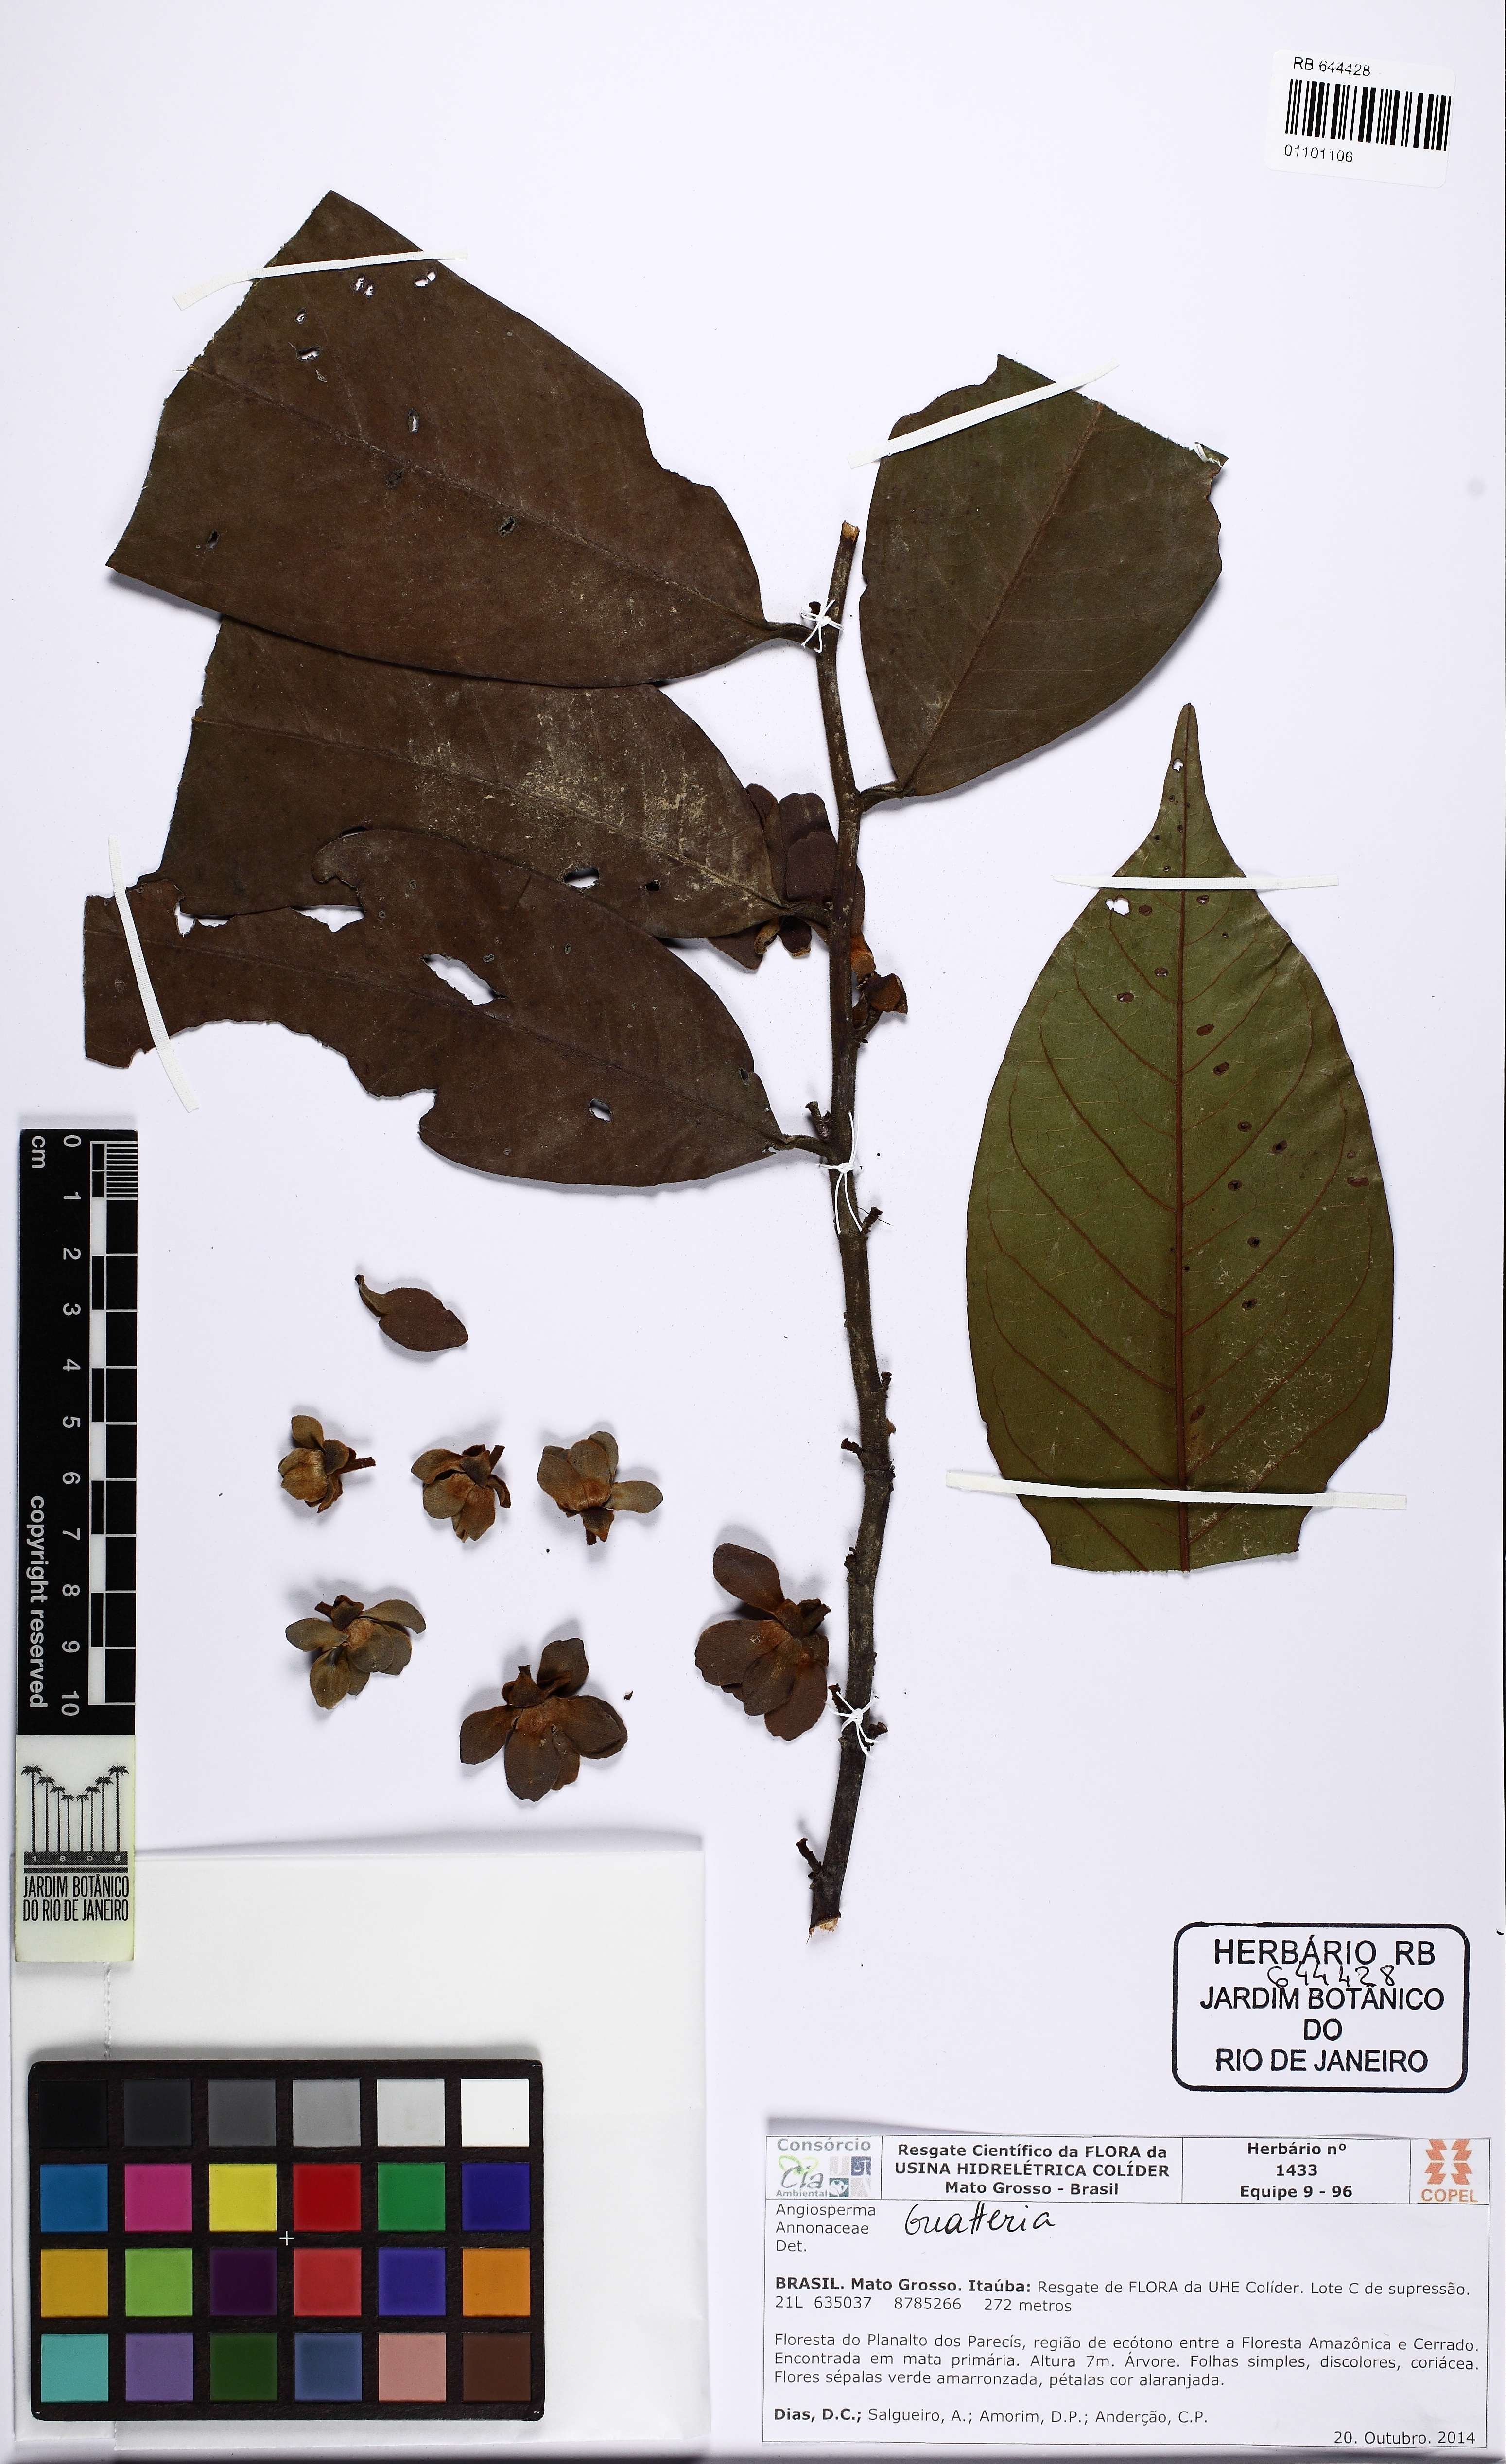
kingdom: Plantae
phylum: Tracheophyta
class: Magnoliopsida
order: Magnoliales
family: Annonaceae
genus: Guatteria
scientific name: Guatteria
